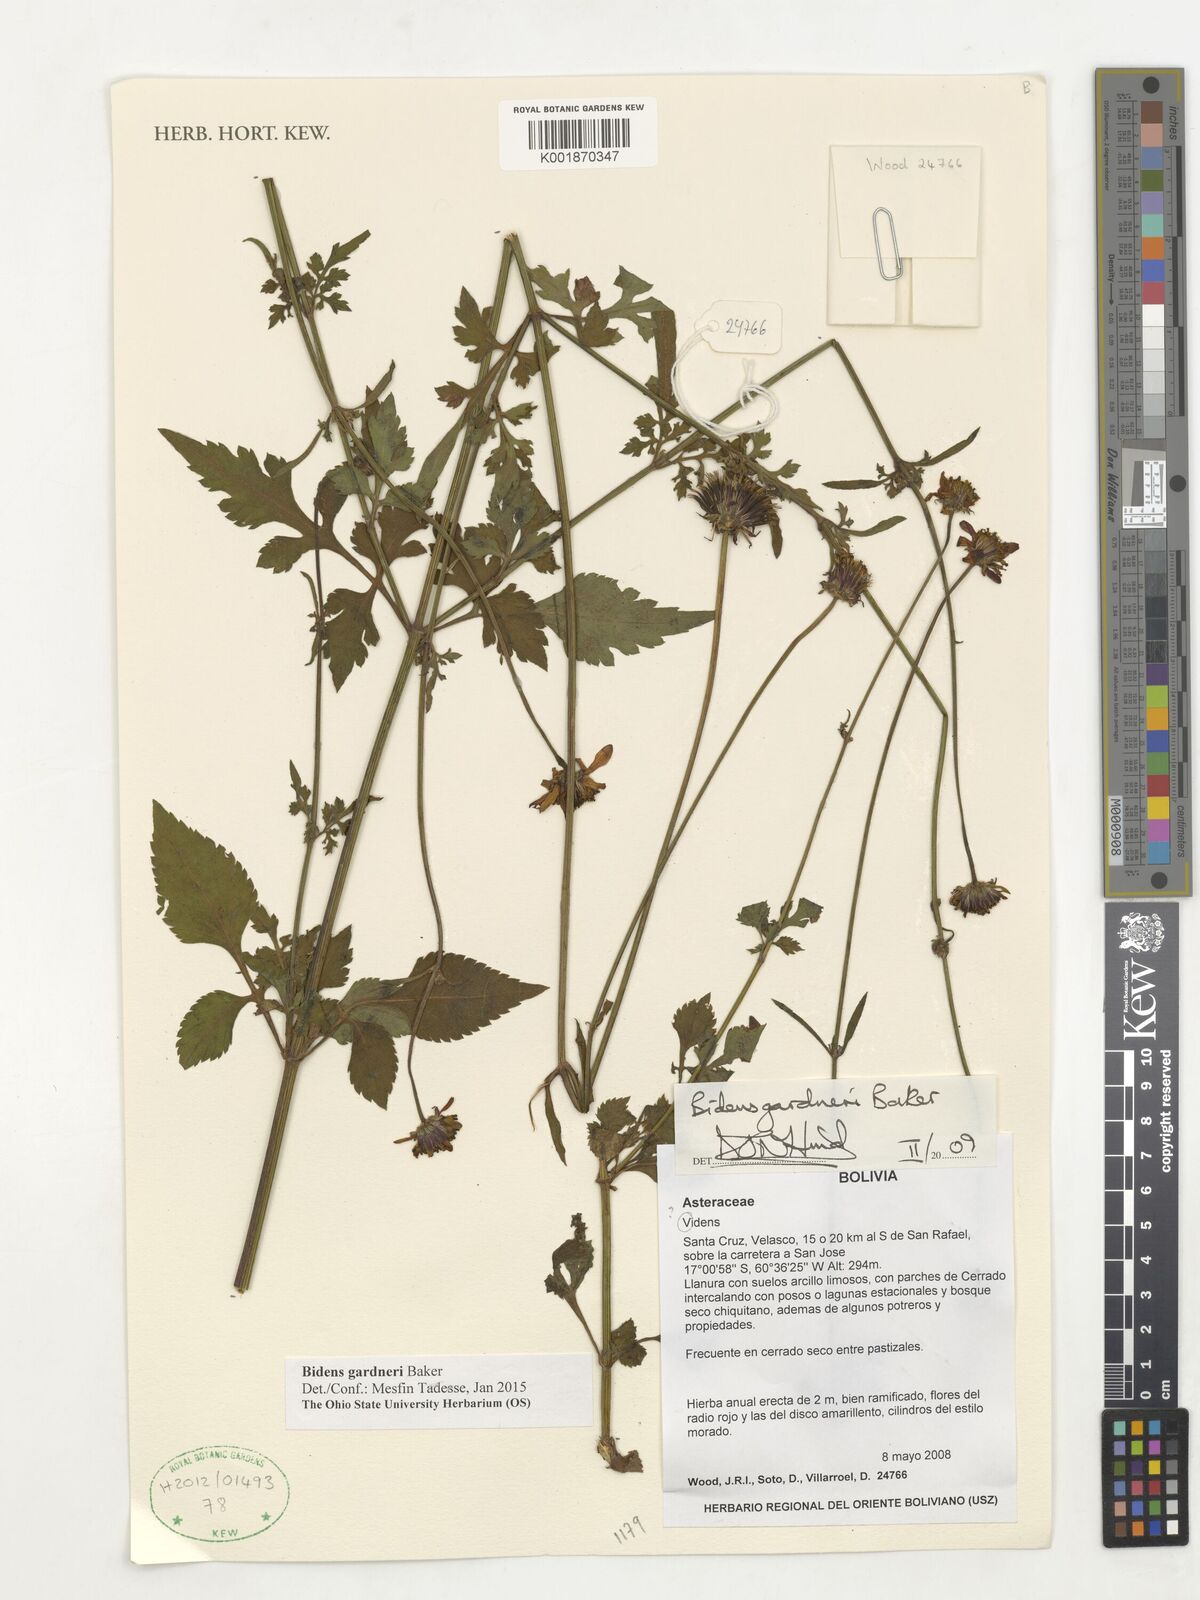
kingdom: Plantae
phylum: Tracheophyta
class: Magnoliopsida
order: Asterales
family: Asteraceae
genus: Bidens
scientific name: Bidens gardneri
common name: Ridge beggartick
